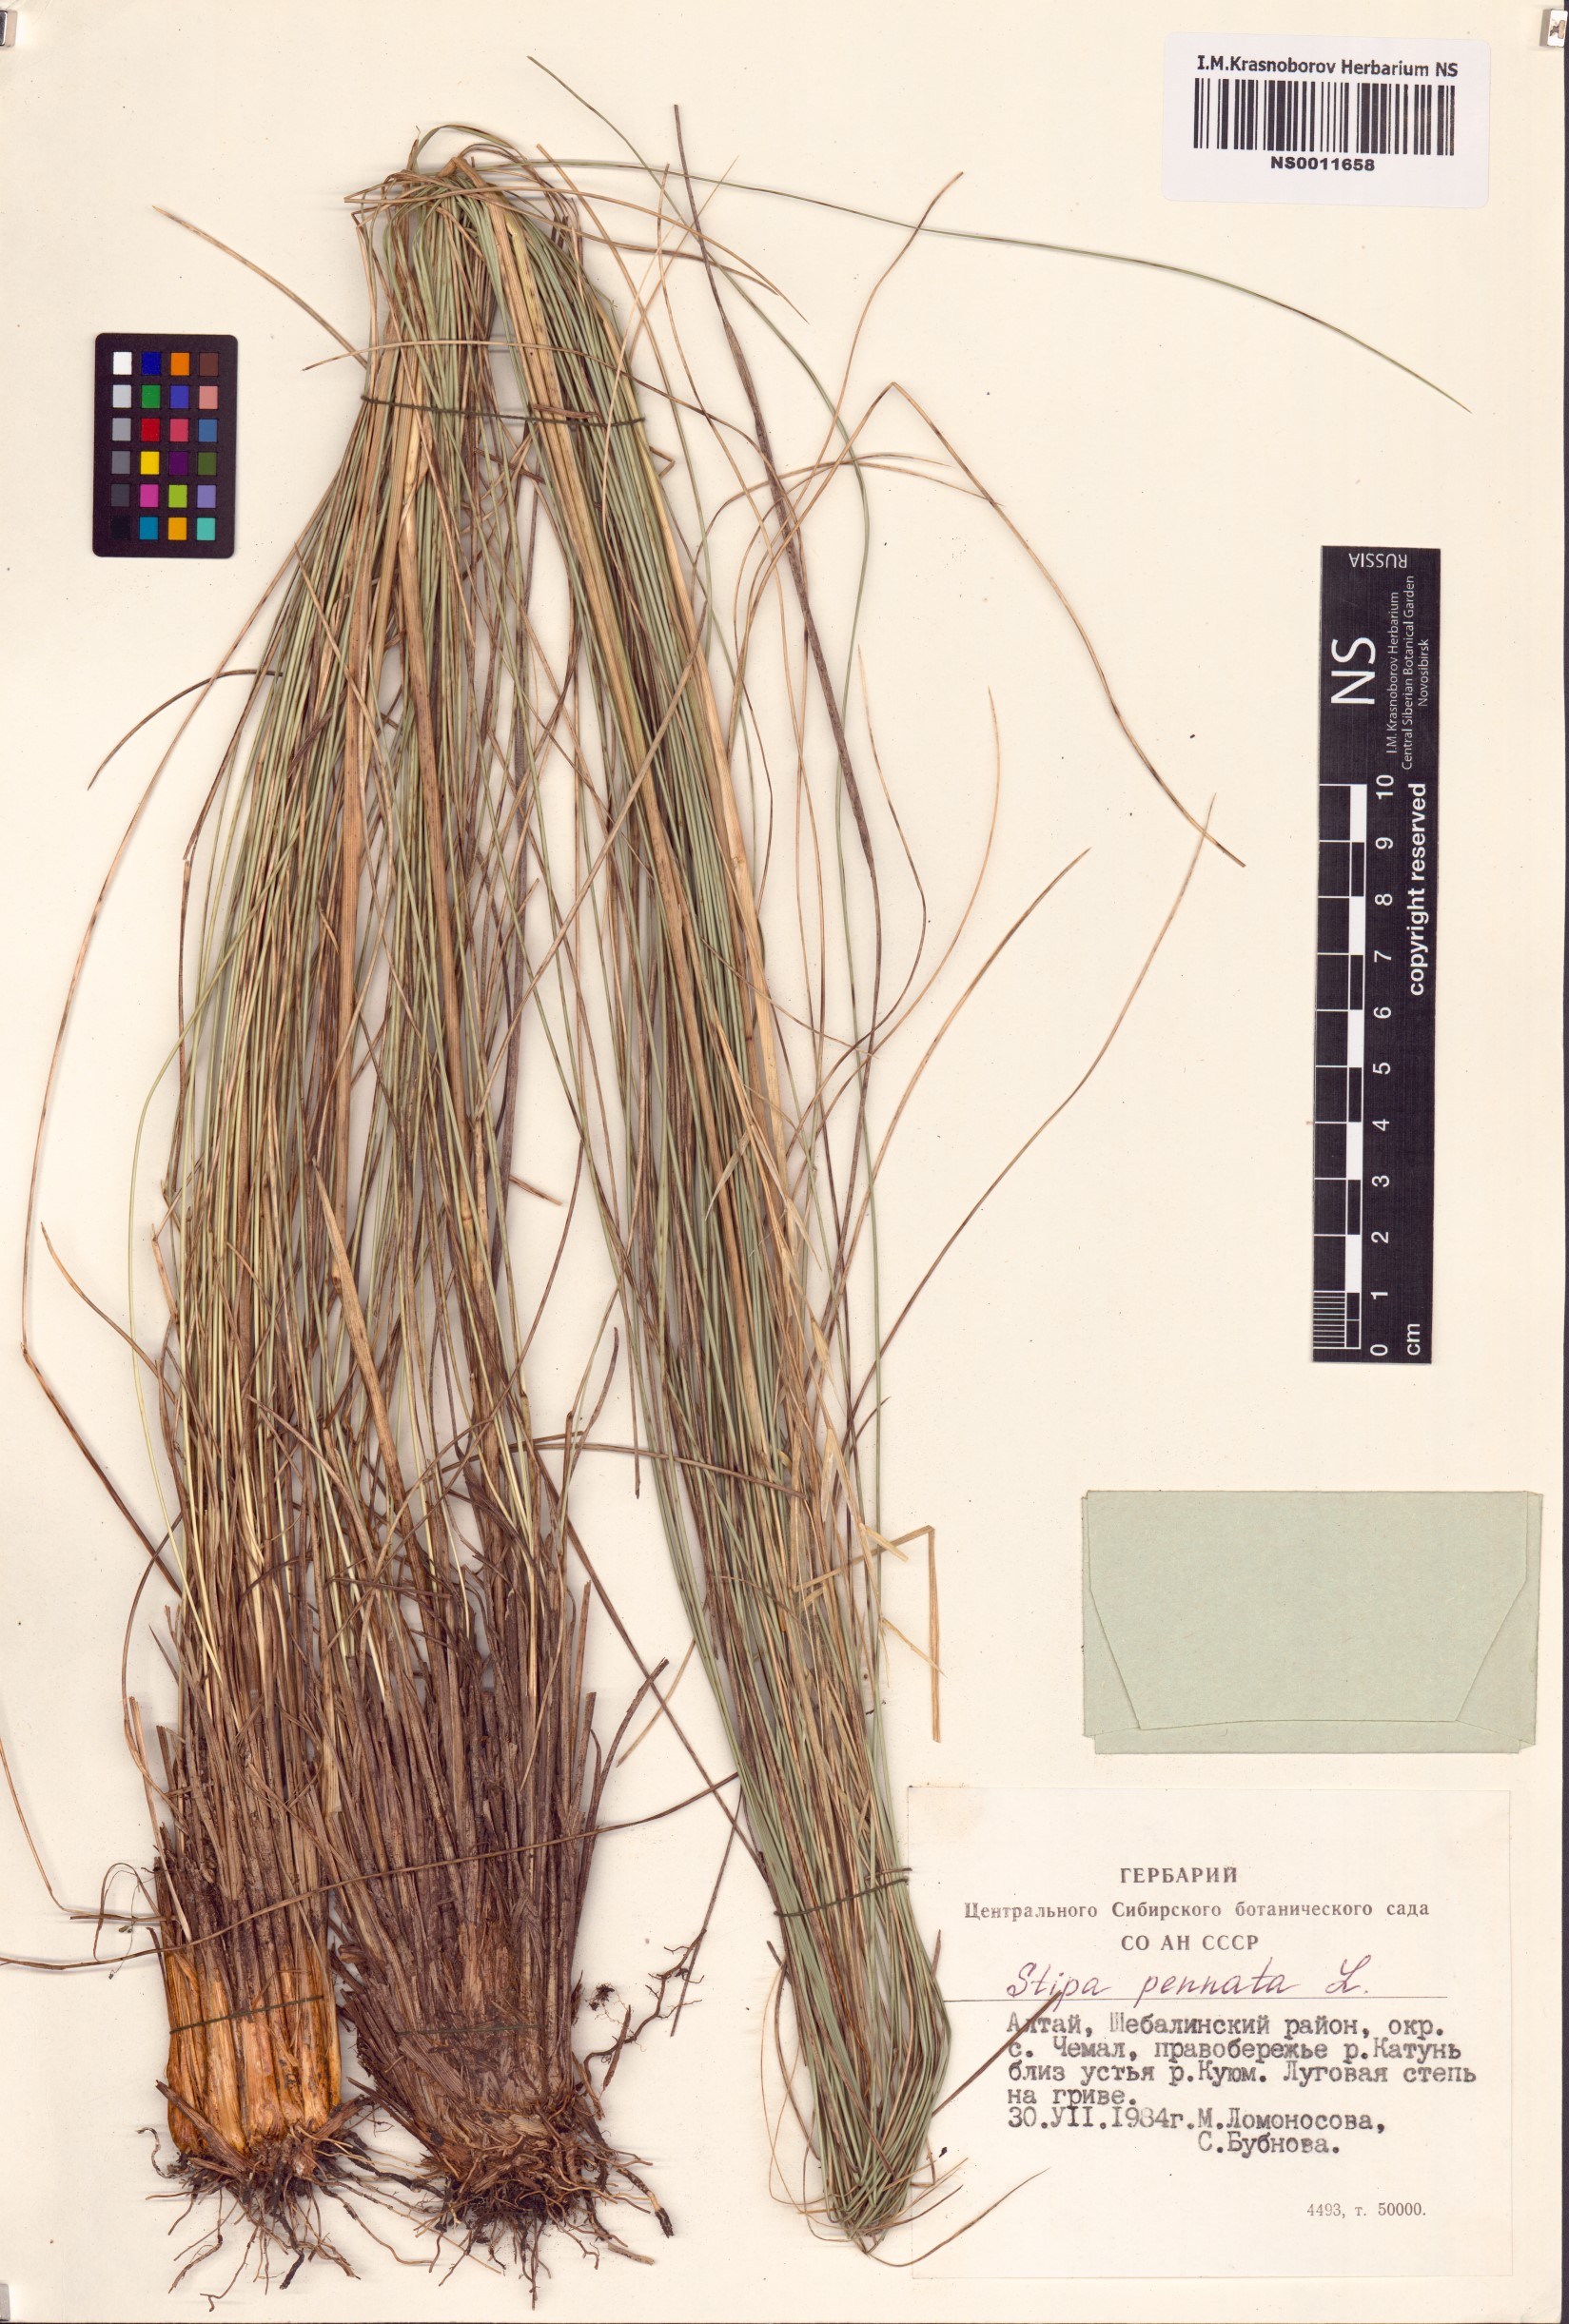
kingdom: Plantae
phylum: Tracheophyta
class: Liliopsida
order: Poales
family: Poaceae
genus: Stipa
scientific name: Stipa pennata
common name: European feather grass
